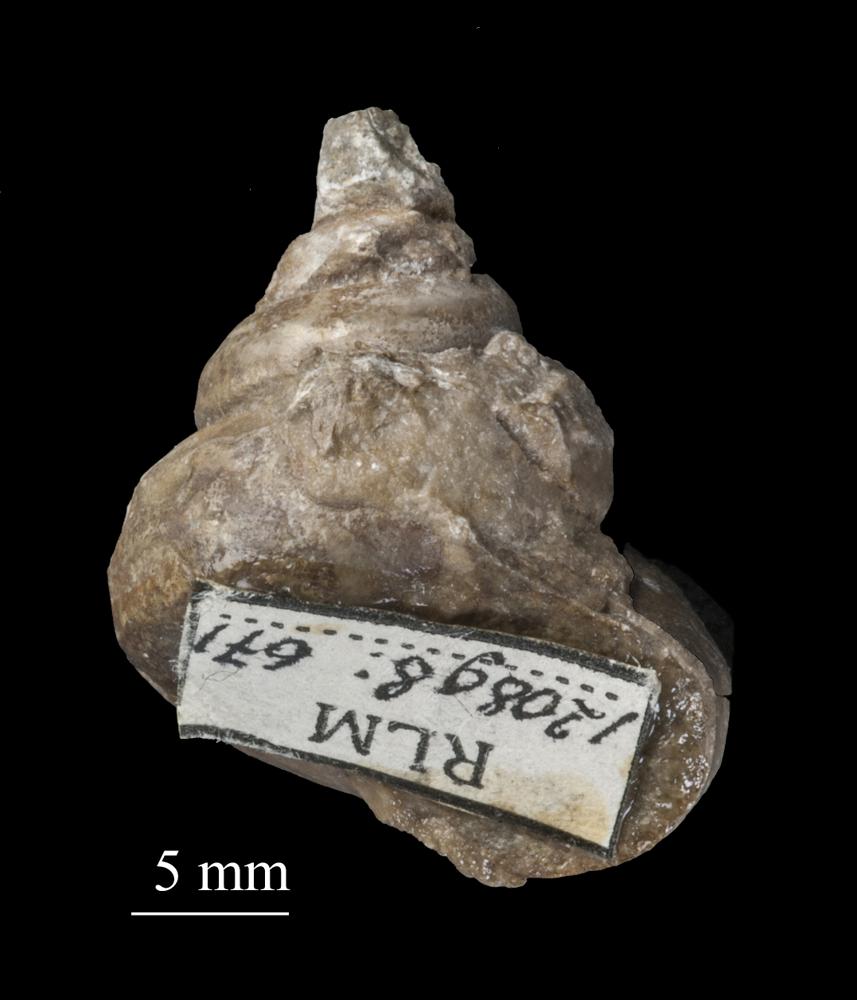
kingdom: Animalia
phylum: Mollusca
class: Gastropoda
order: Trochida
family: Trochidae
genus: Trochus
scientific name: Trochus
